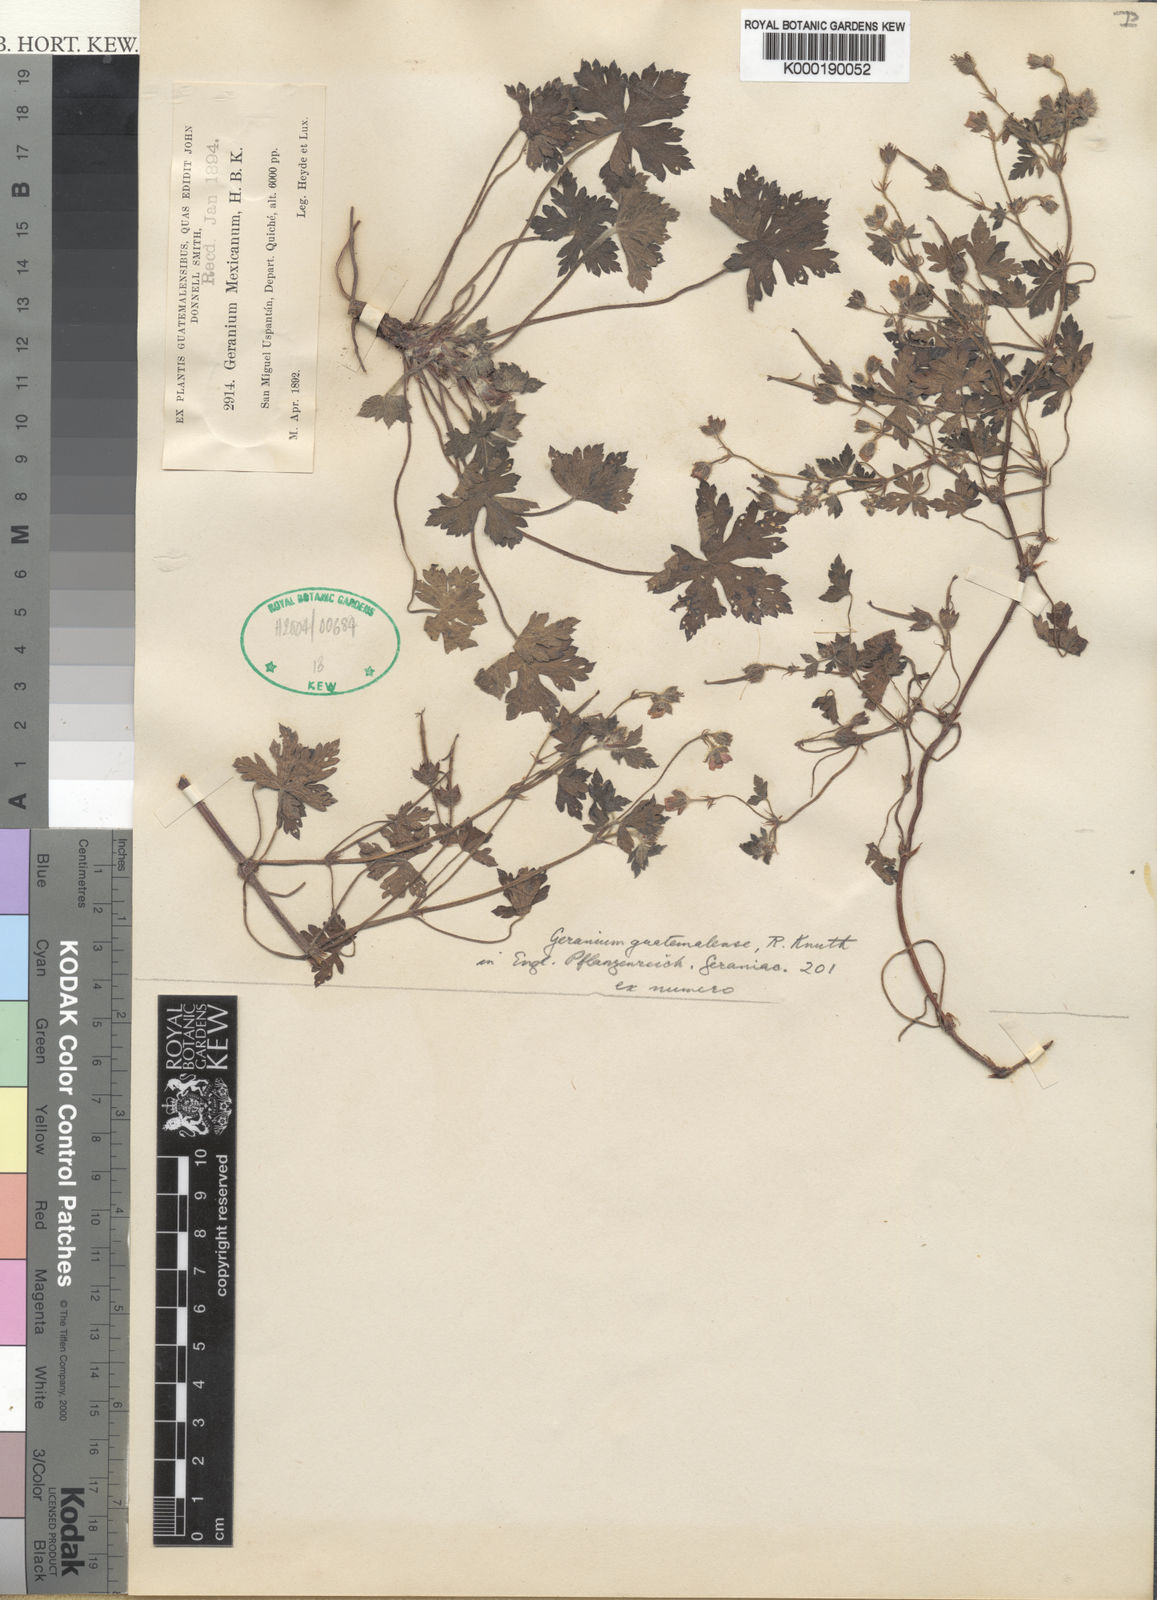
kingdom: Plantae
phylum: Tracheophyta
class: Magnoliopsida
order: Geraniales
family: Geraniaceae
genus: Geranium
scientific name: Geranium seemannii
